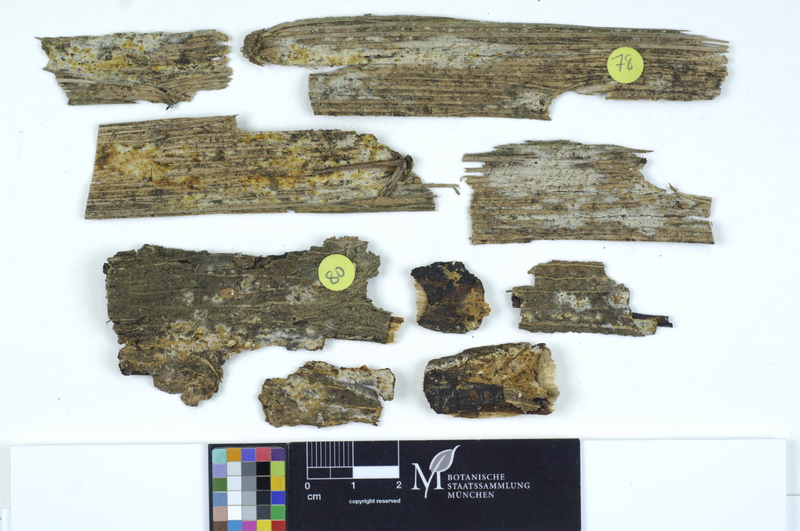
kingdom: Fungi
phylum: Basidiomycota
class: Microbotryomycetes
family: Colacogloeaceae
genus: Colacogloea
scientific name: Colacogloea peniophorae
